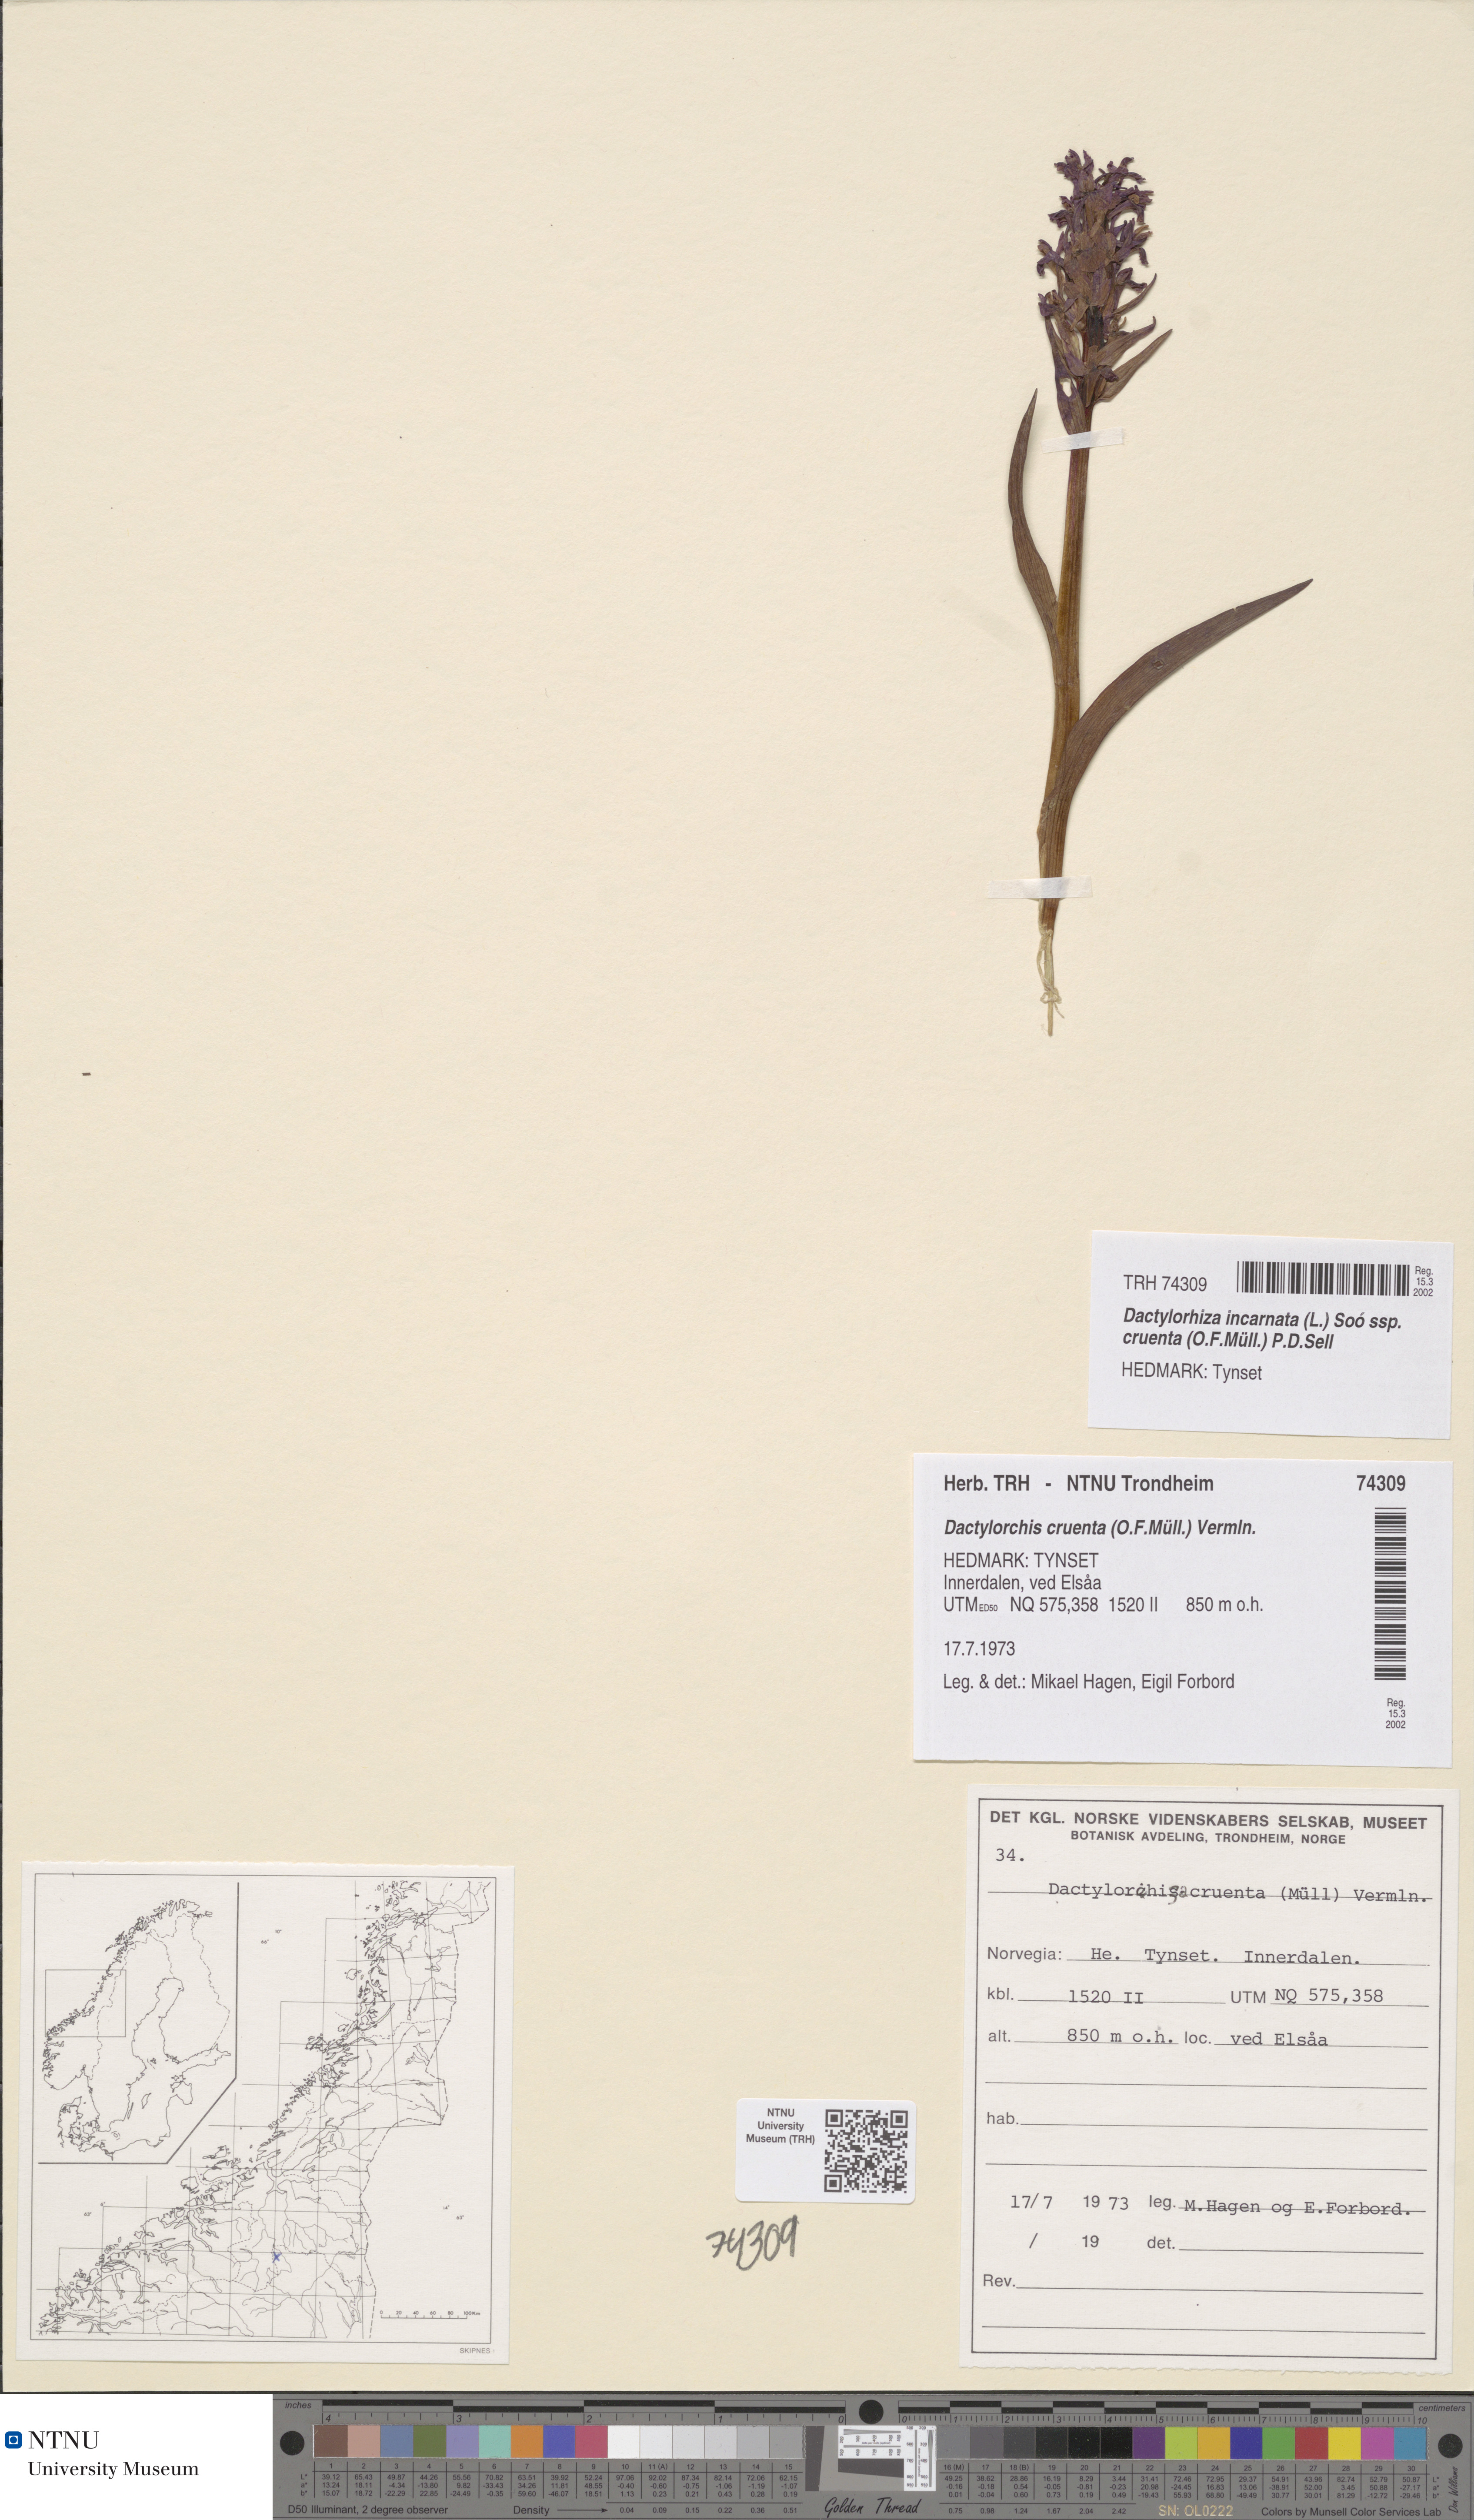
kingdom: Plantae
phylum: Tracheophyta
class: Liliopsida
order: Asparagales
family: Orchidaceae
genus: Dactylorhiza
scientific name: Dactylorhiza incarnata
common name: Early marsh-orchid
